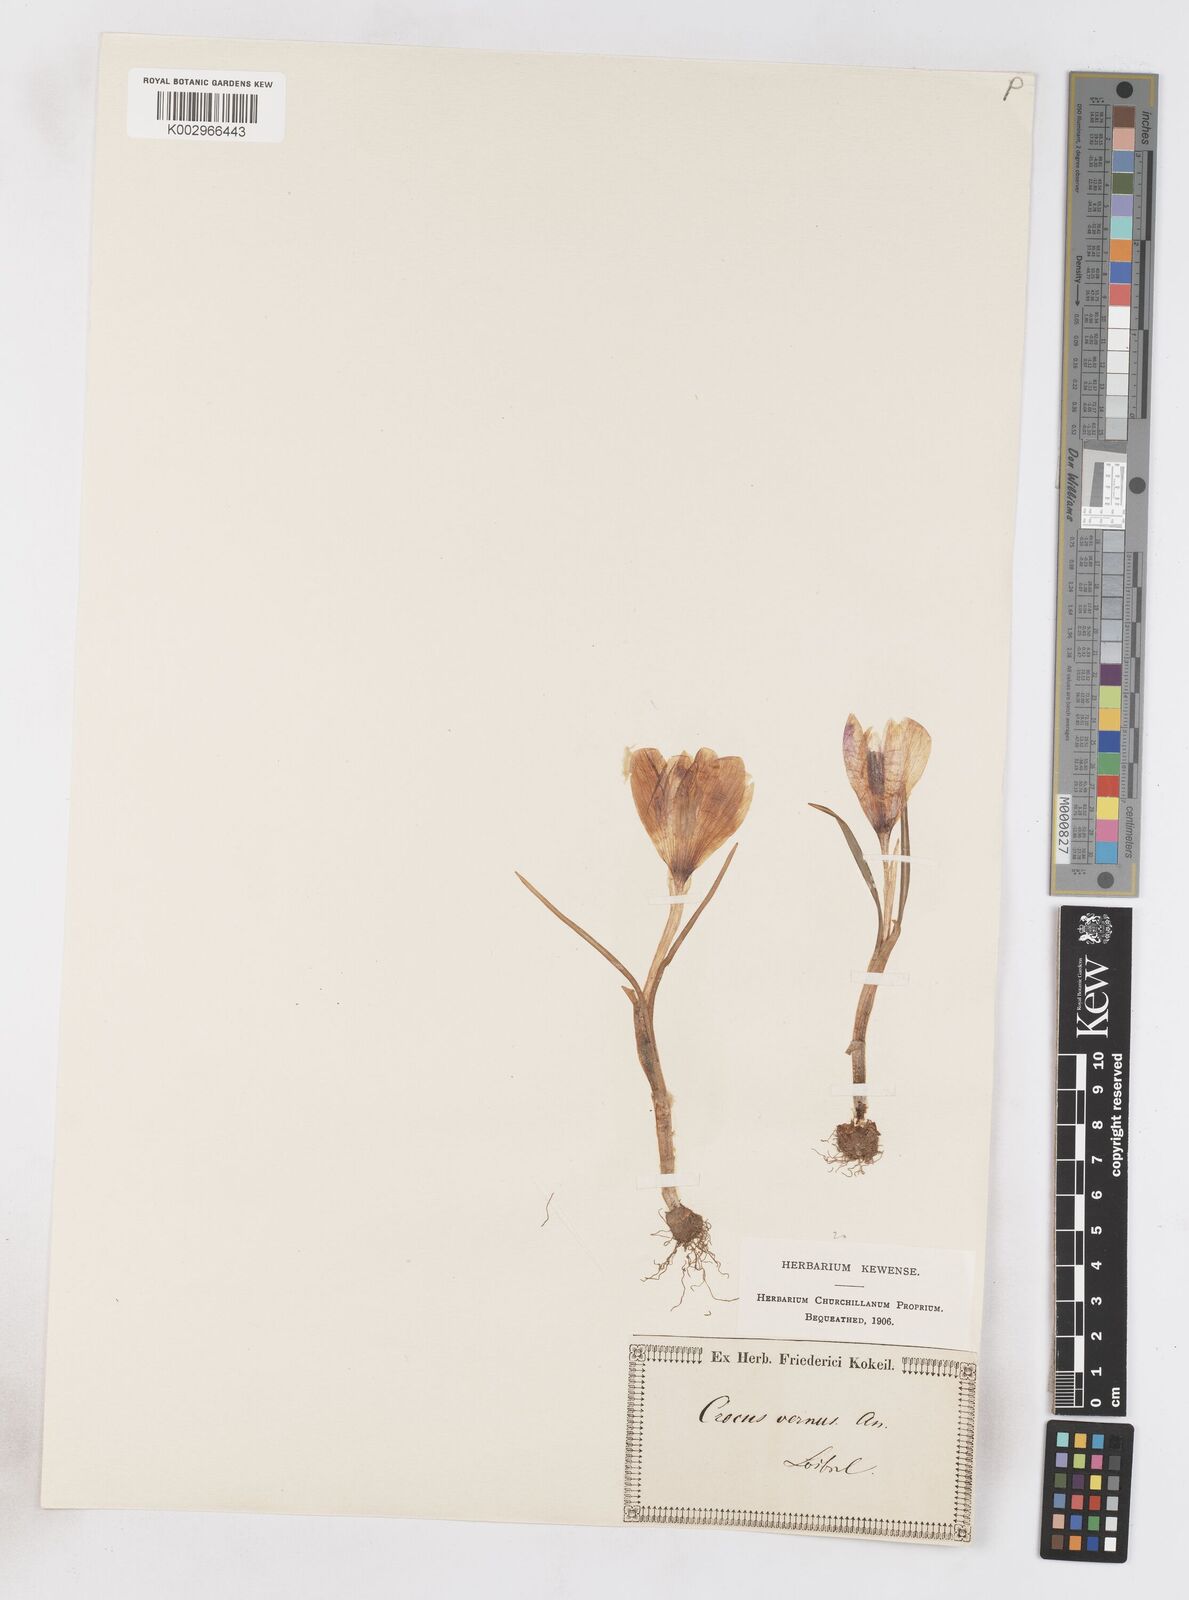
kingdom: Plantae
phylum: Tracheophyta
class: Liliopsida
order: Asparagales
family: Iridaceae
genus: Crocus
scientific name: Crocus vernus
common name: Spring crocus
